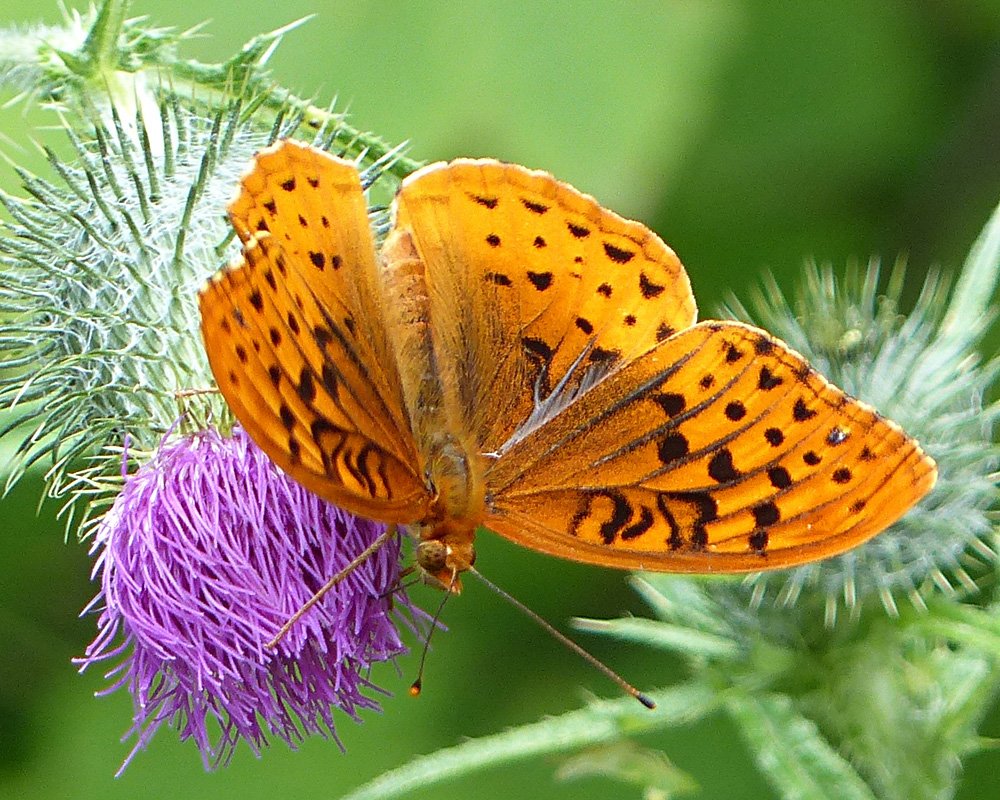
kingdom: Animalia
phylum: Arthropoda
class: Insecta
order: Lepidoptera
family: Nymphalidae
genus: Speyeria
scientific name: Speyeria cybele
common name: Great Spangled Fritillary
